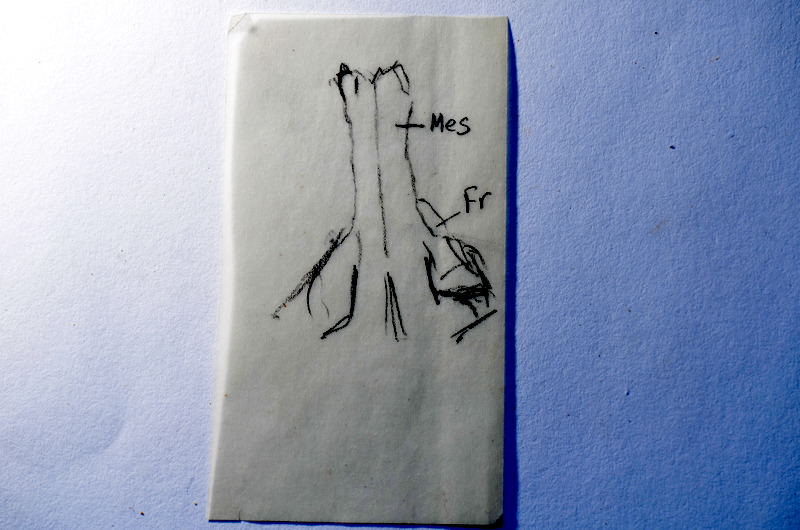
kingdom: Animalia
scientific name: Animalia
